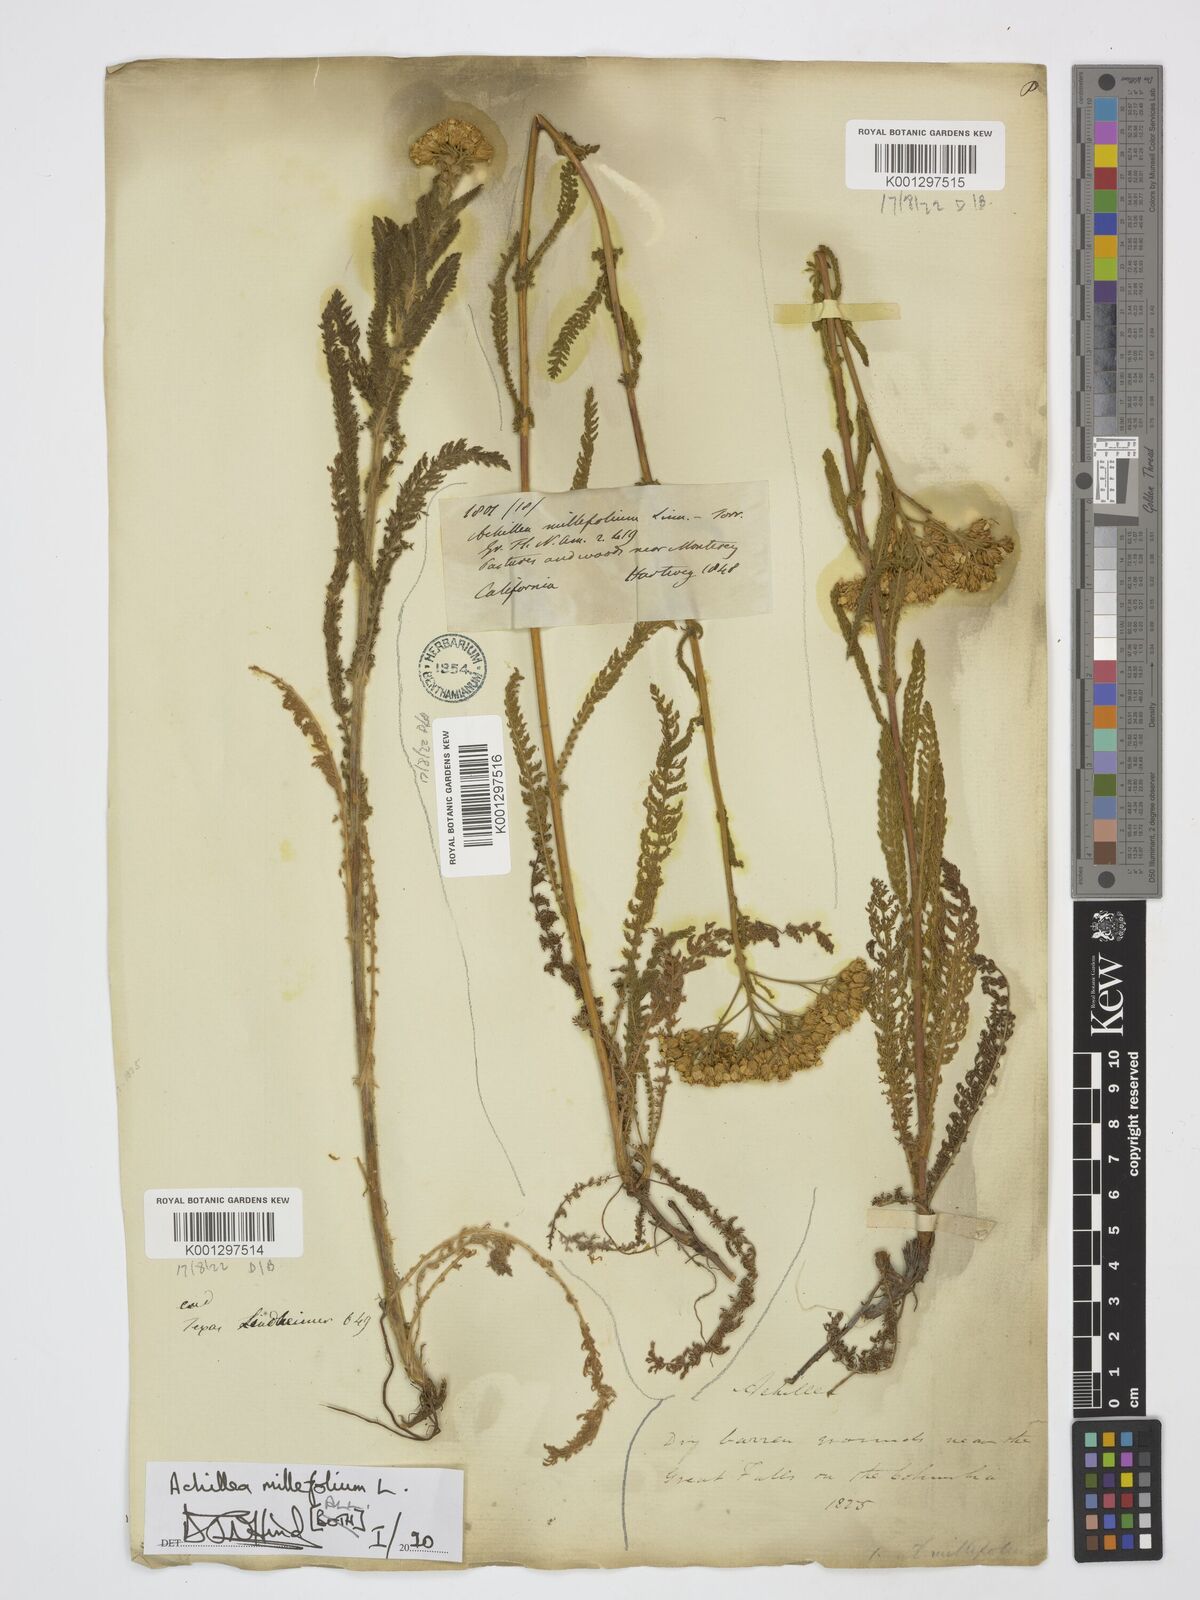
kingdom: Plantae
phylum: Tracheophyta
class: Magnoliopsida
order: Asterales
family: Asteraceae
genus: Achillea
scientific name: Achillea millefolium
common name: Yarrow
